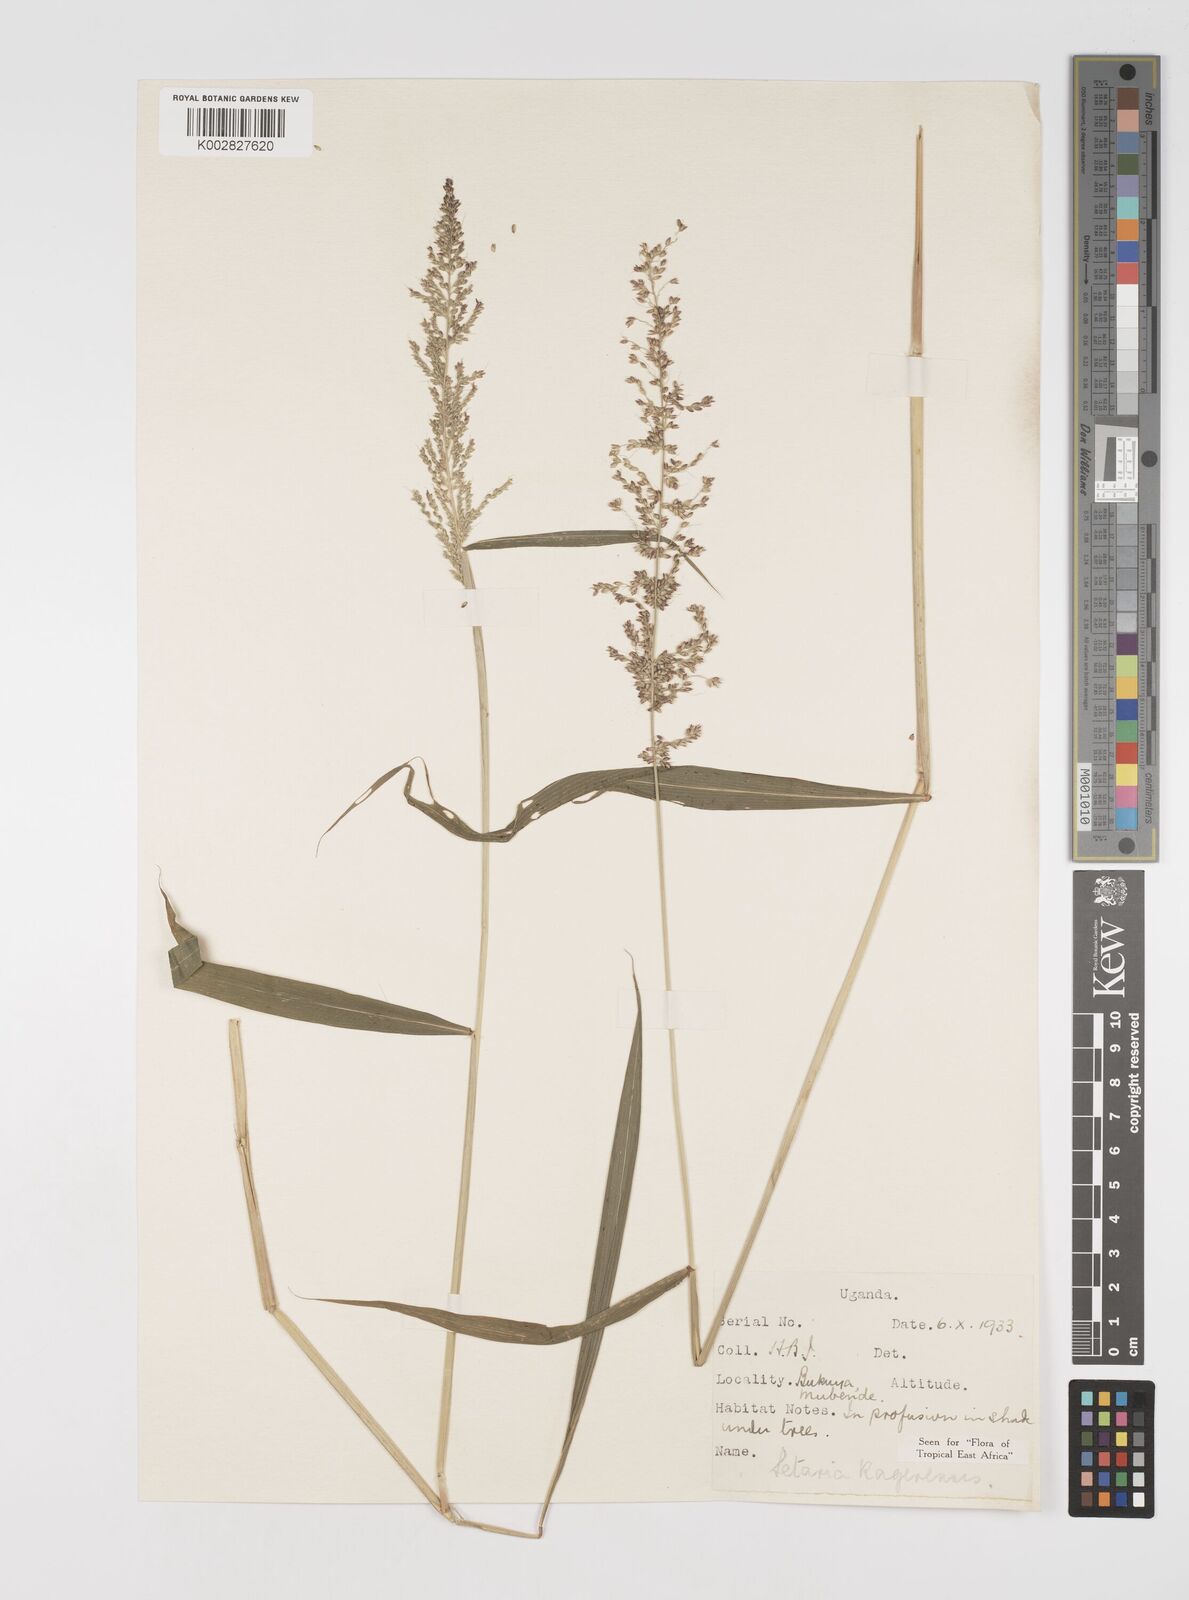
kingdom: Plantae
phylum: Tracheophyta
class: Liliopsida
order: Poales
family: Poaceae
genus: Setaria
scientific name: Setaria kagerensis
